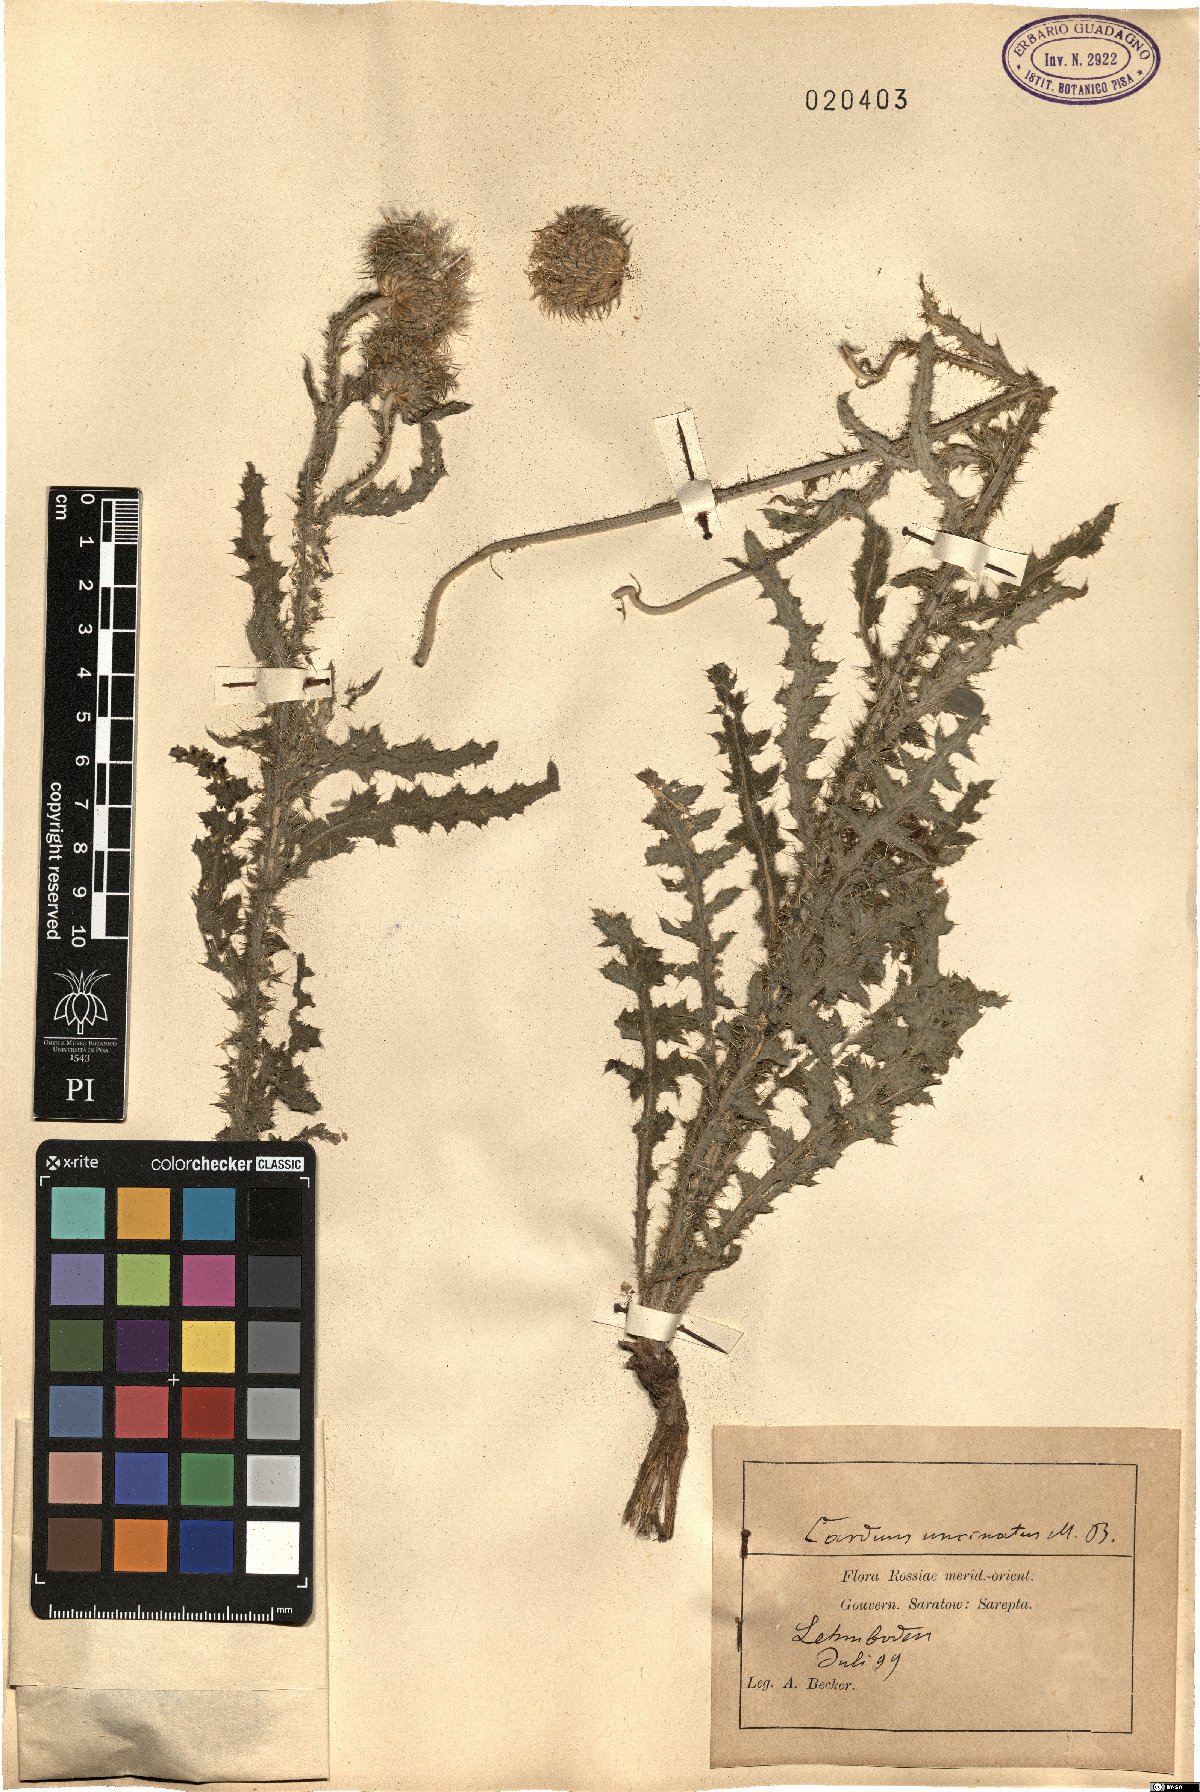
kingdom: Plantae
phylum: Tracheophyta
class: Magnoliopsida
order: Asterales
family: Asteraceae
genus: Carduus
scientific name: Carduus uncinatus
